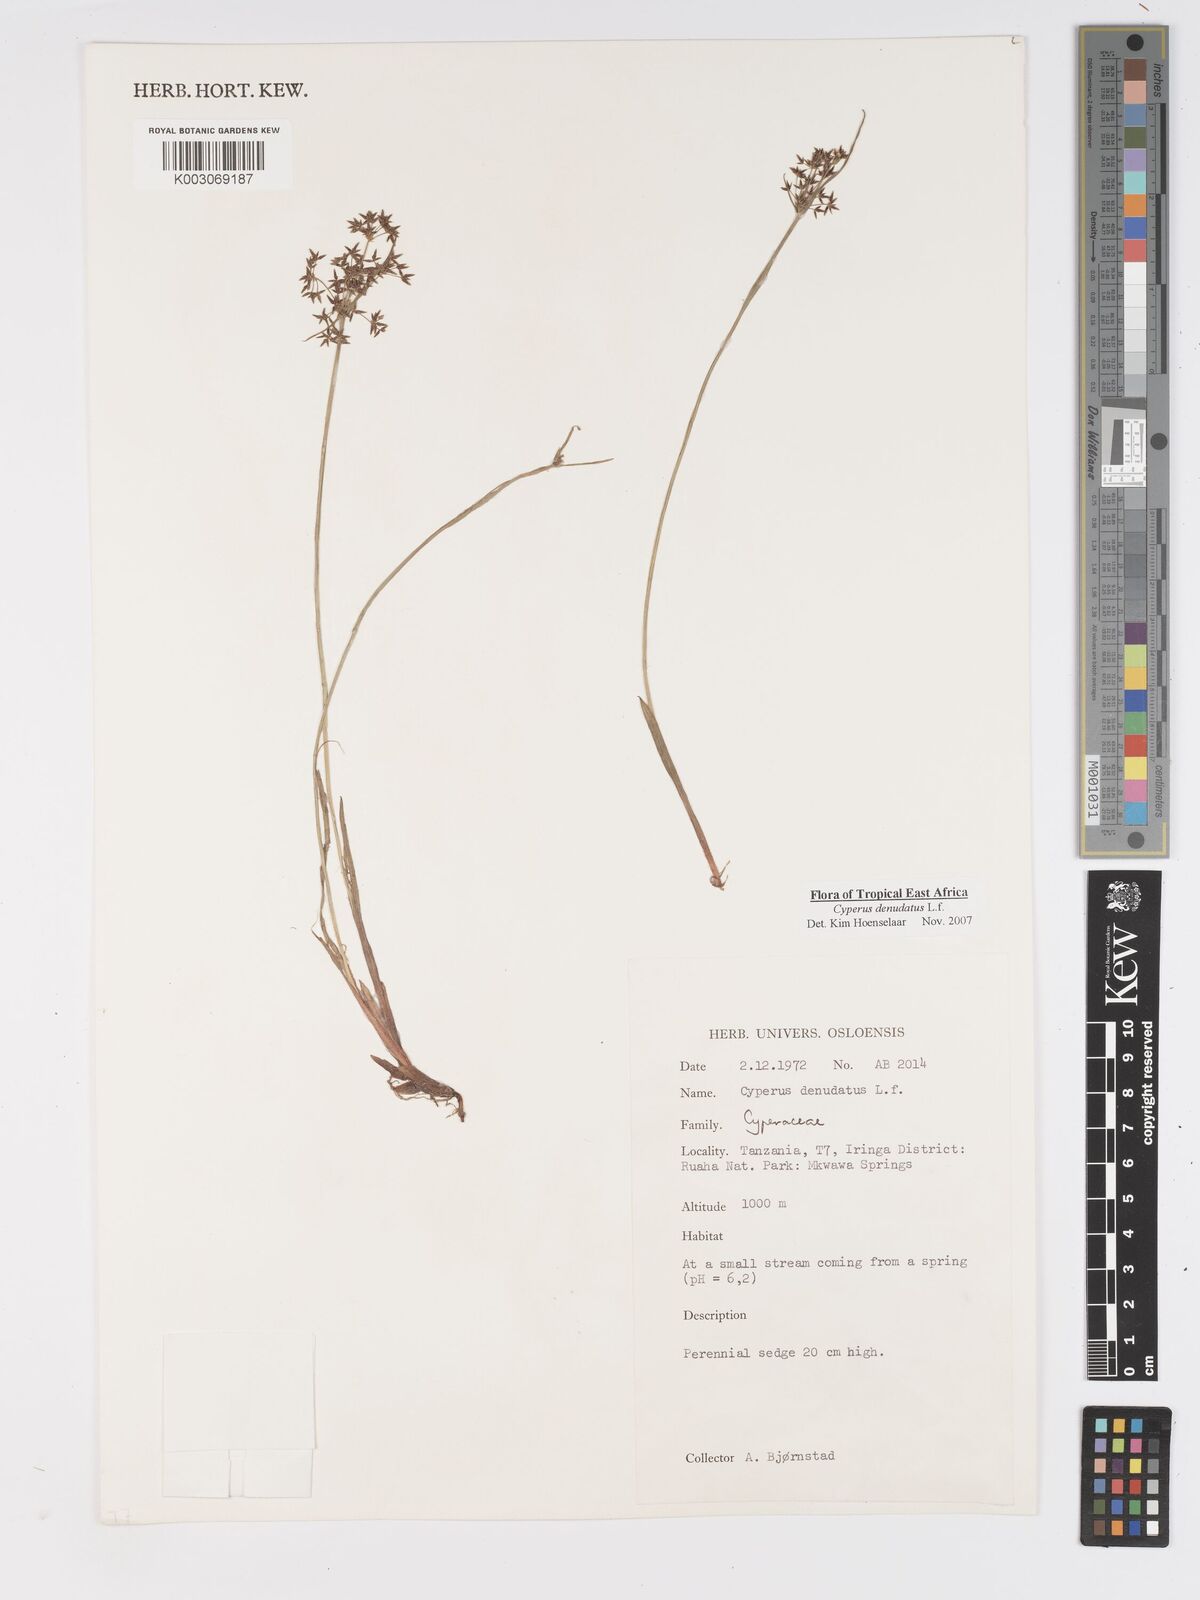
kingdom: Plantae
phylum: Tracheophyta
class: Liliopsida
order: Poales
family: Cyperaceae
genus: Cyperus
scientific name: Cyperus denudatus
